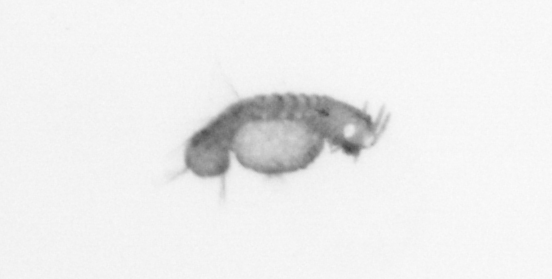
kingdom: Animalia
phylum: Annelida
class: Polychaeta
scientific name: Polychaeta
